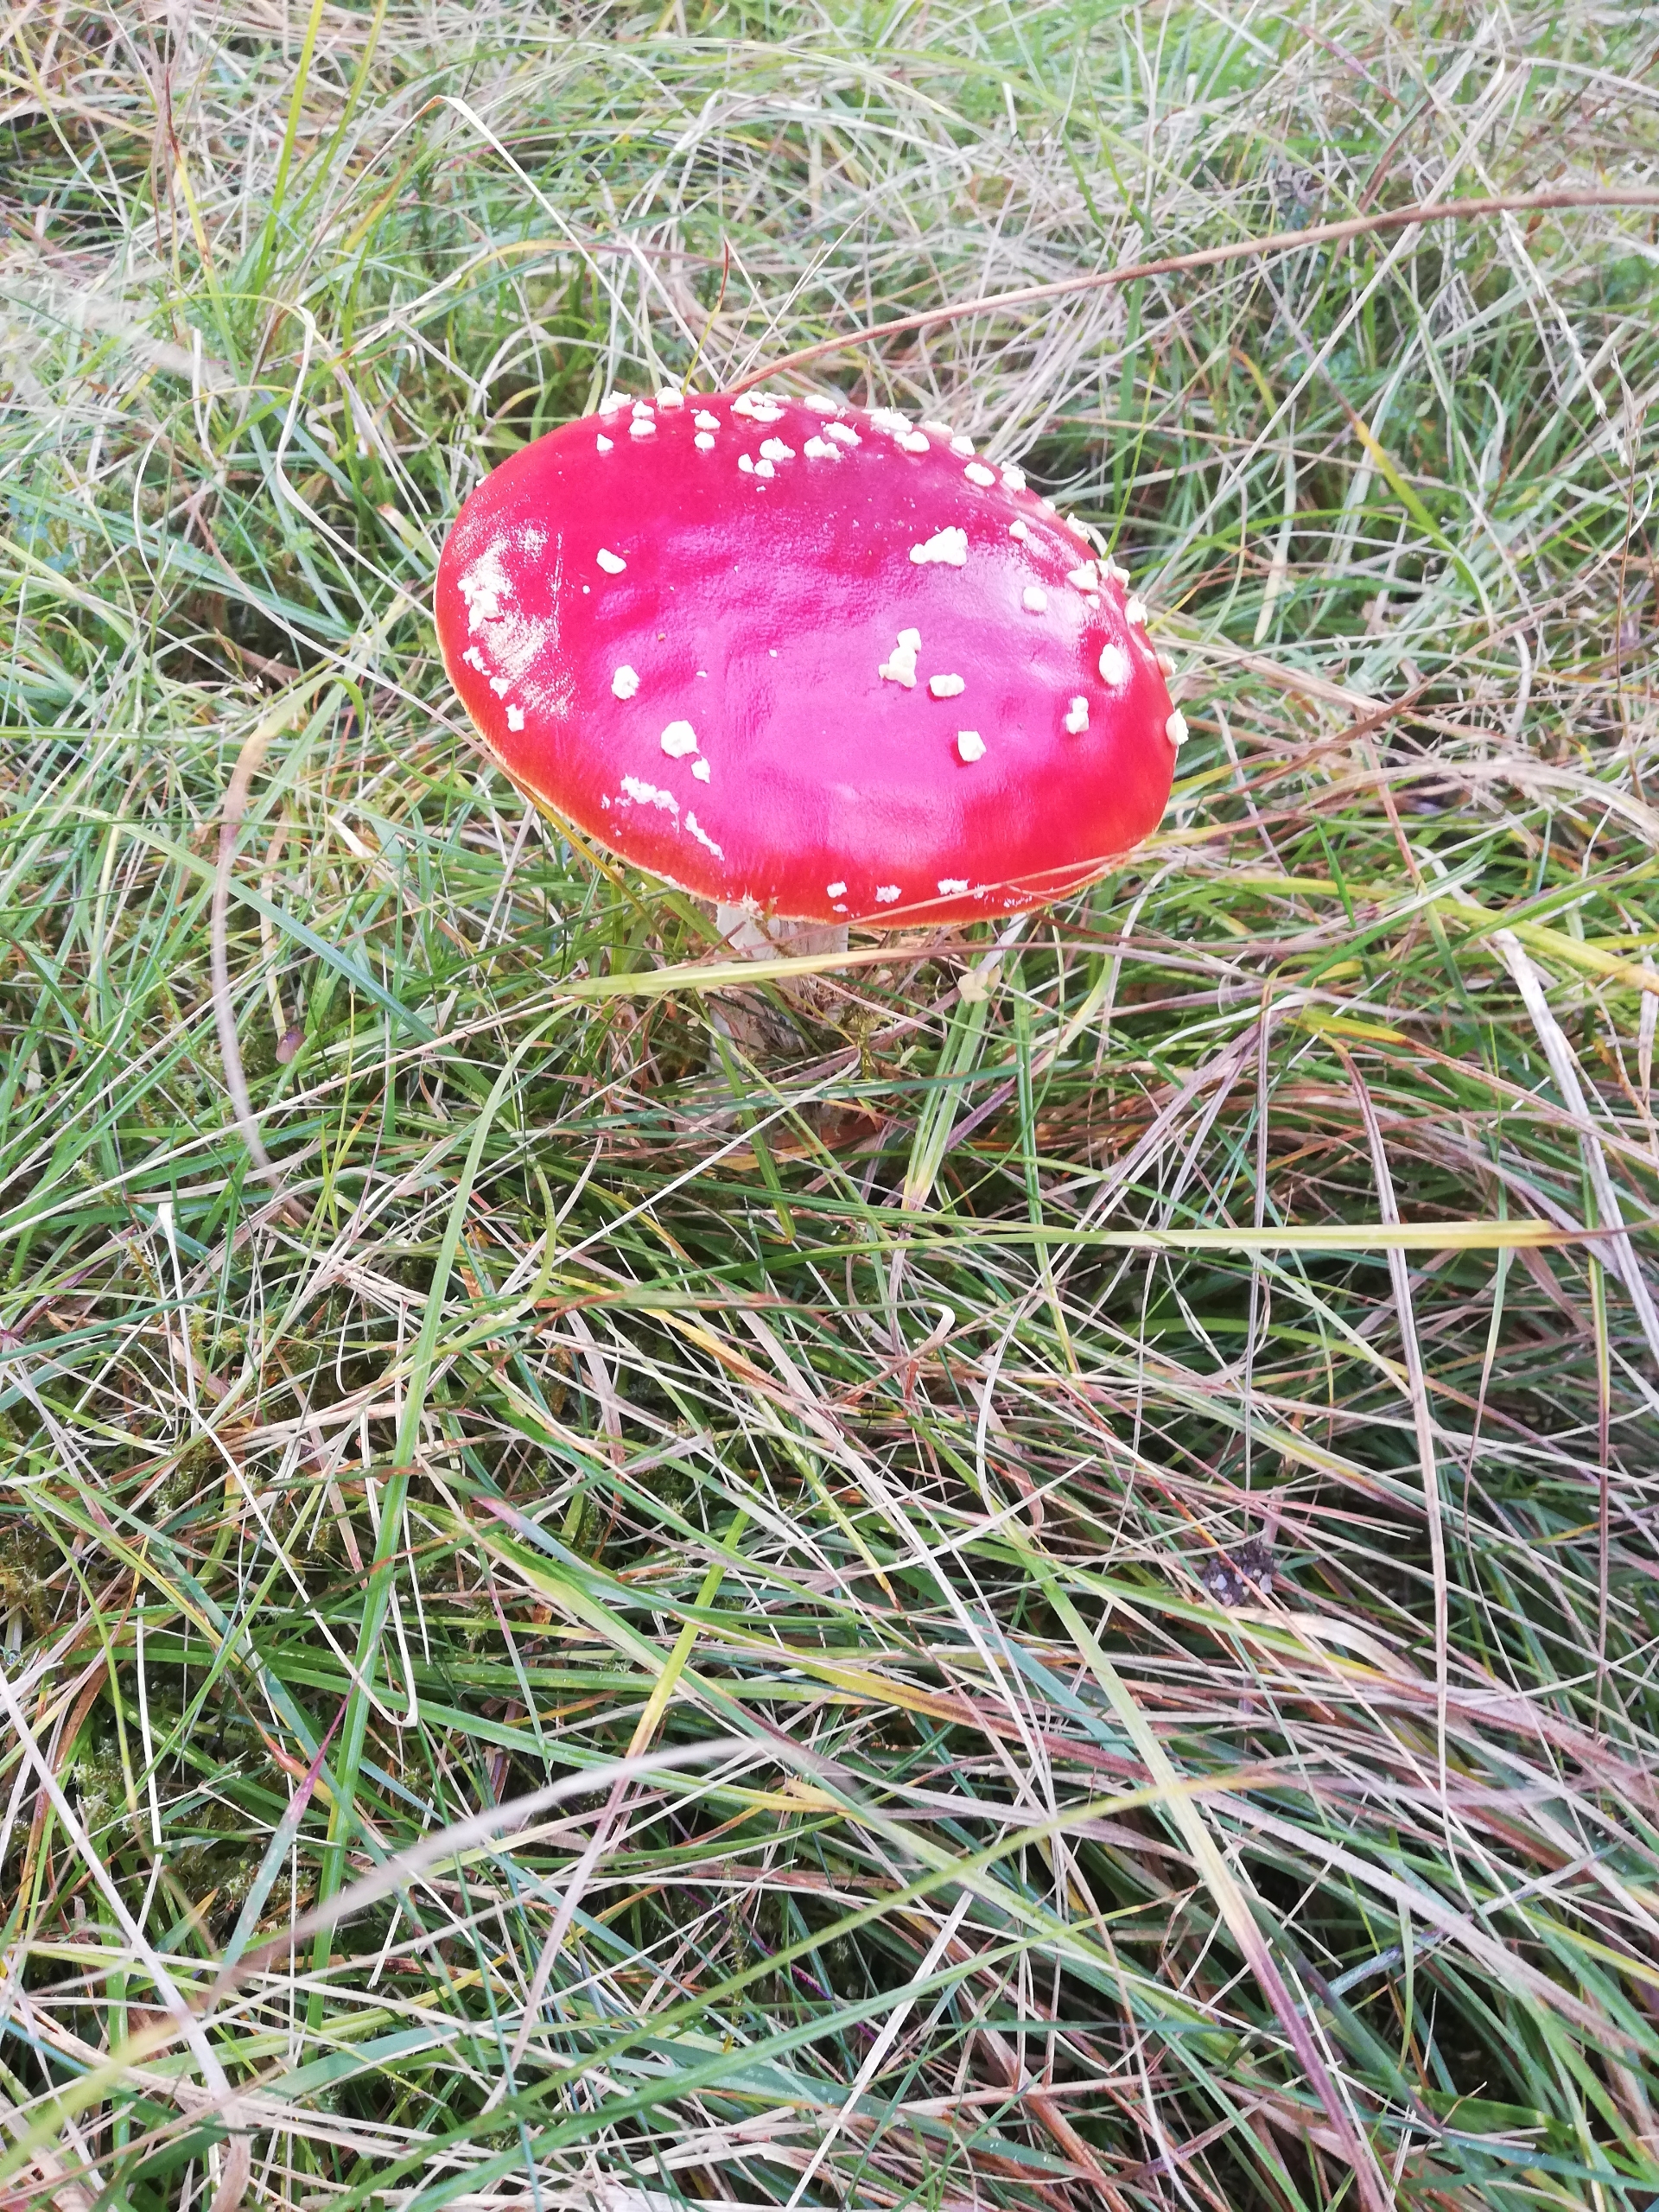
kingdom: Fungi
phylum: Basidiomycota
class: Agaricomycetes
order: Agaricales
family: Amanitaceae
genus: Amanita
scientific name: Amanita muscaria
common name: Rød fluesvamp
